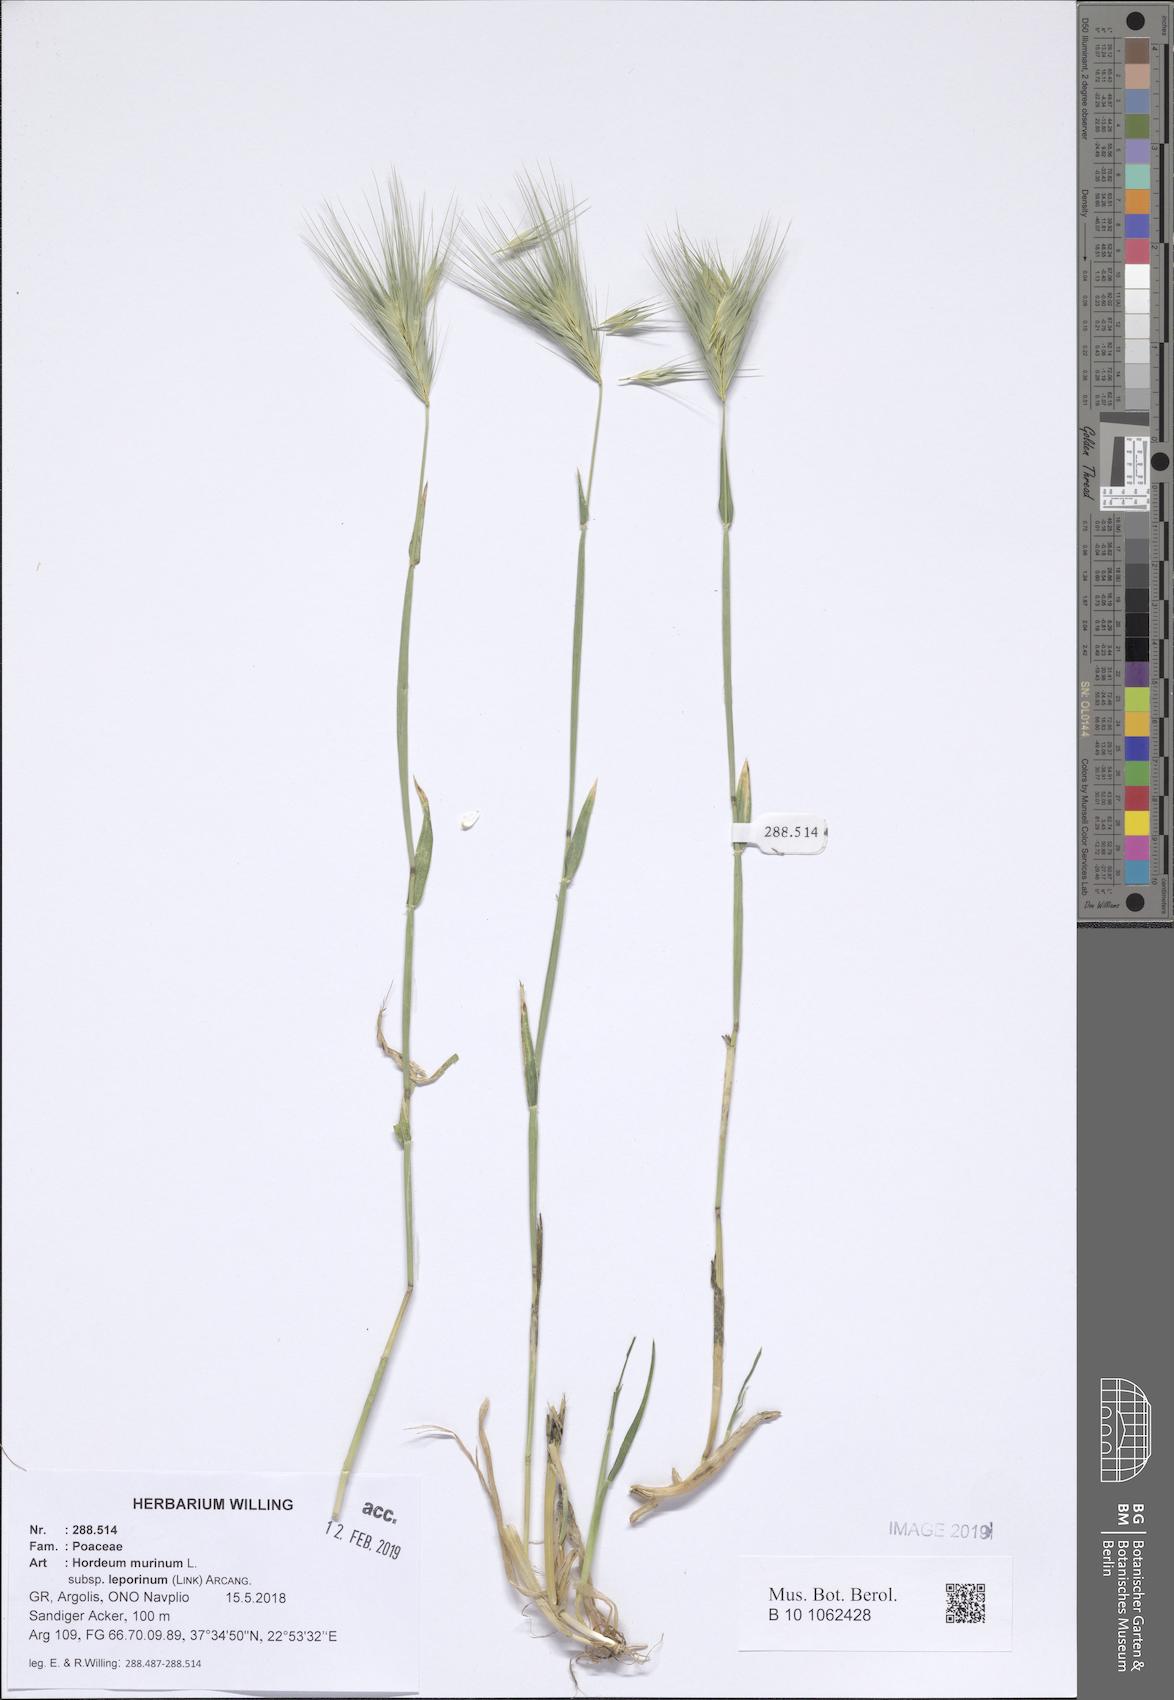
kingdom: Plantae
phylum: Tracheophyta
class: Liliopsida
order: Poales
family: Poaceae
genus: Hordeum
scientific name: Hordeum murinum
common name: Wall barley
